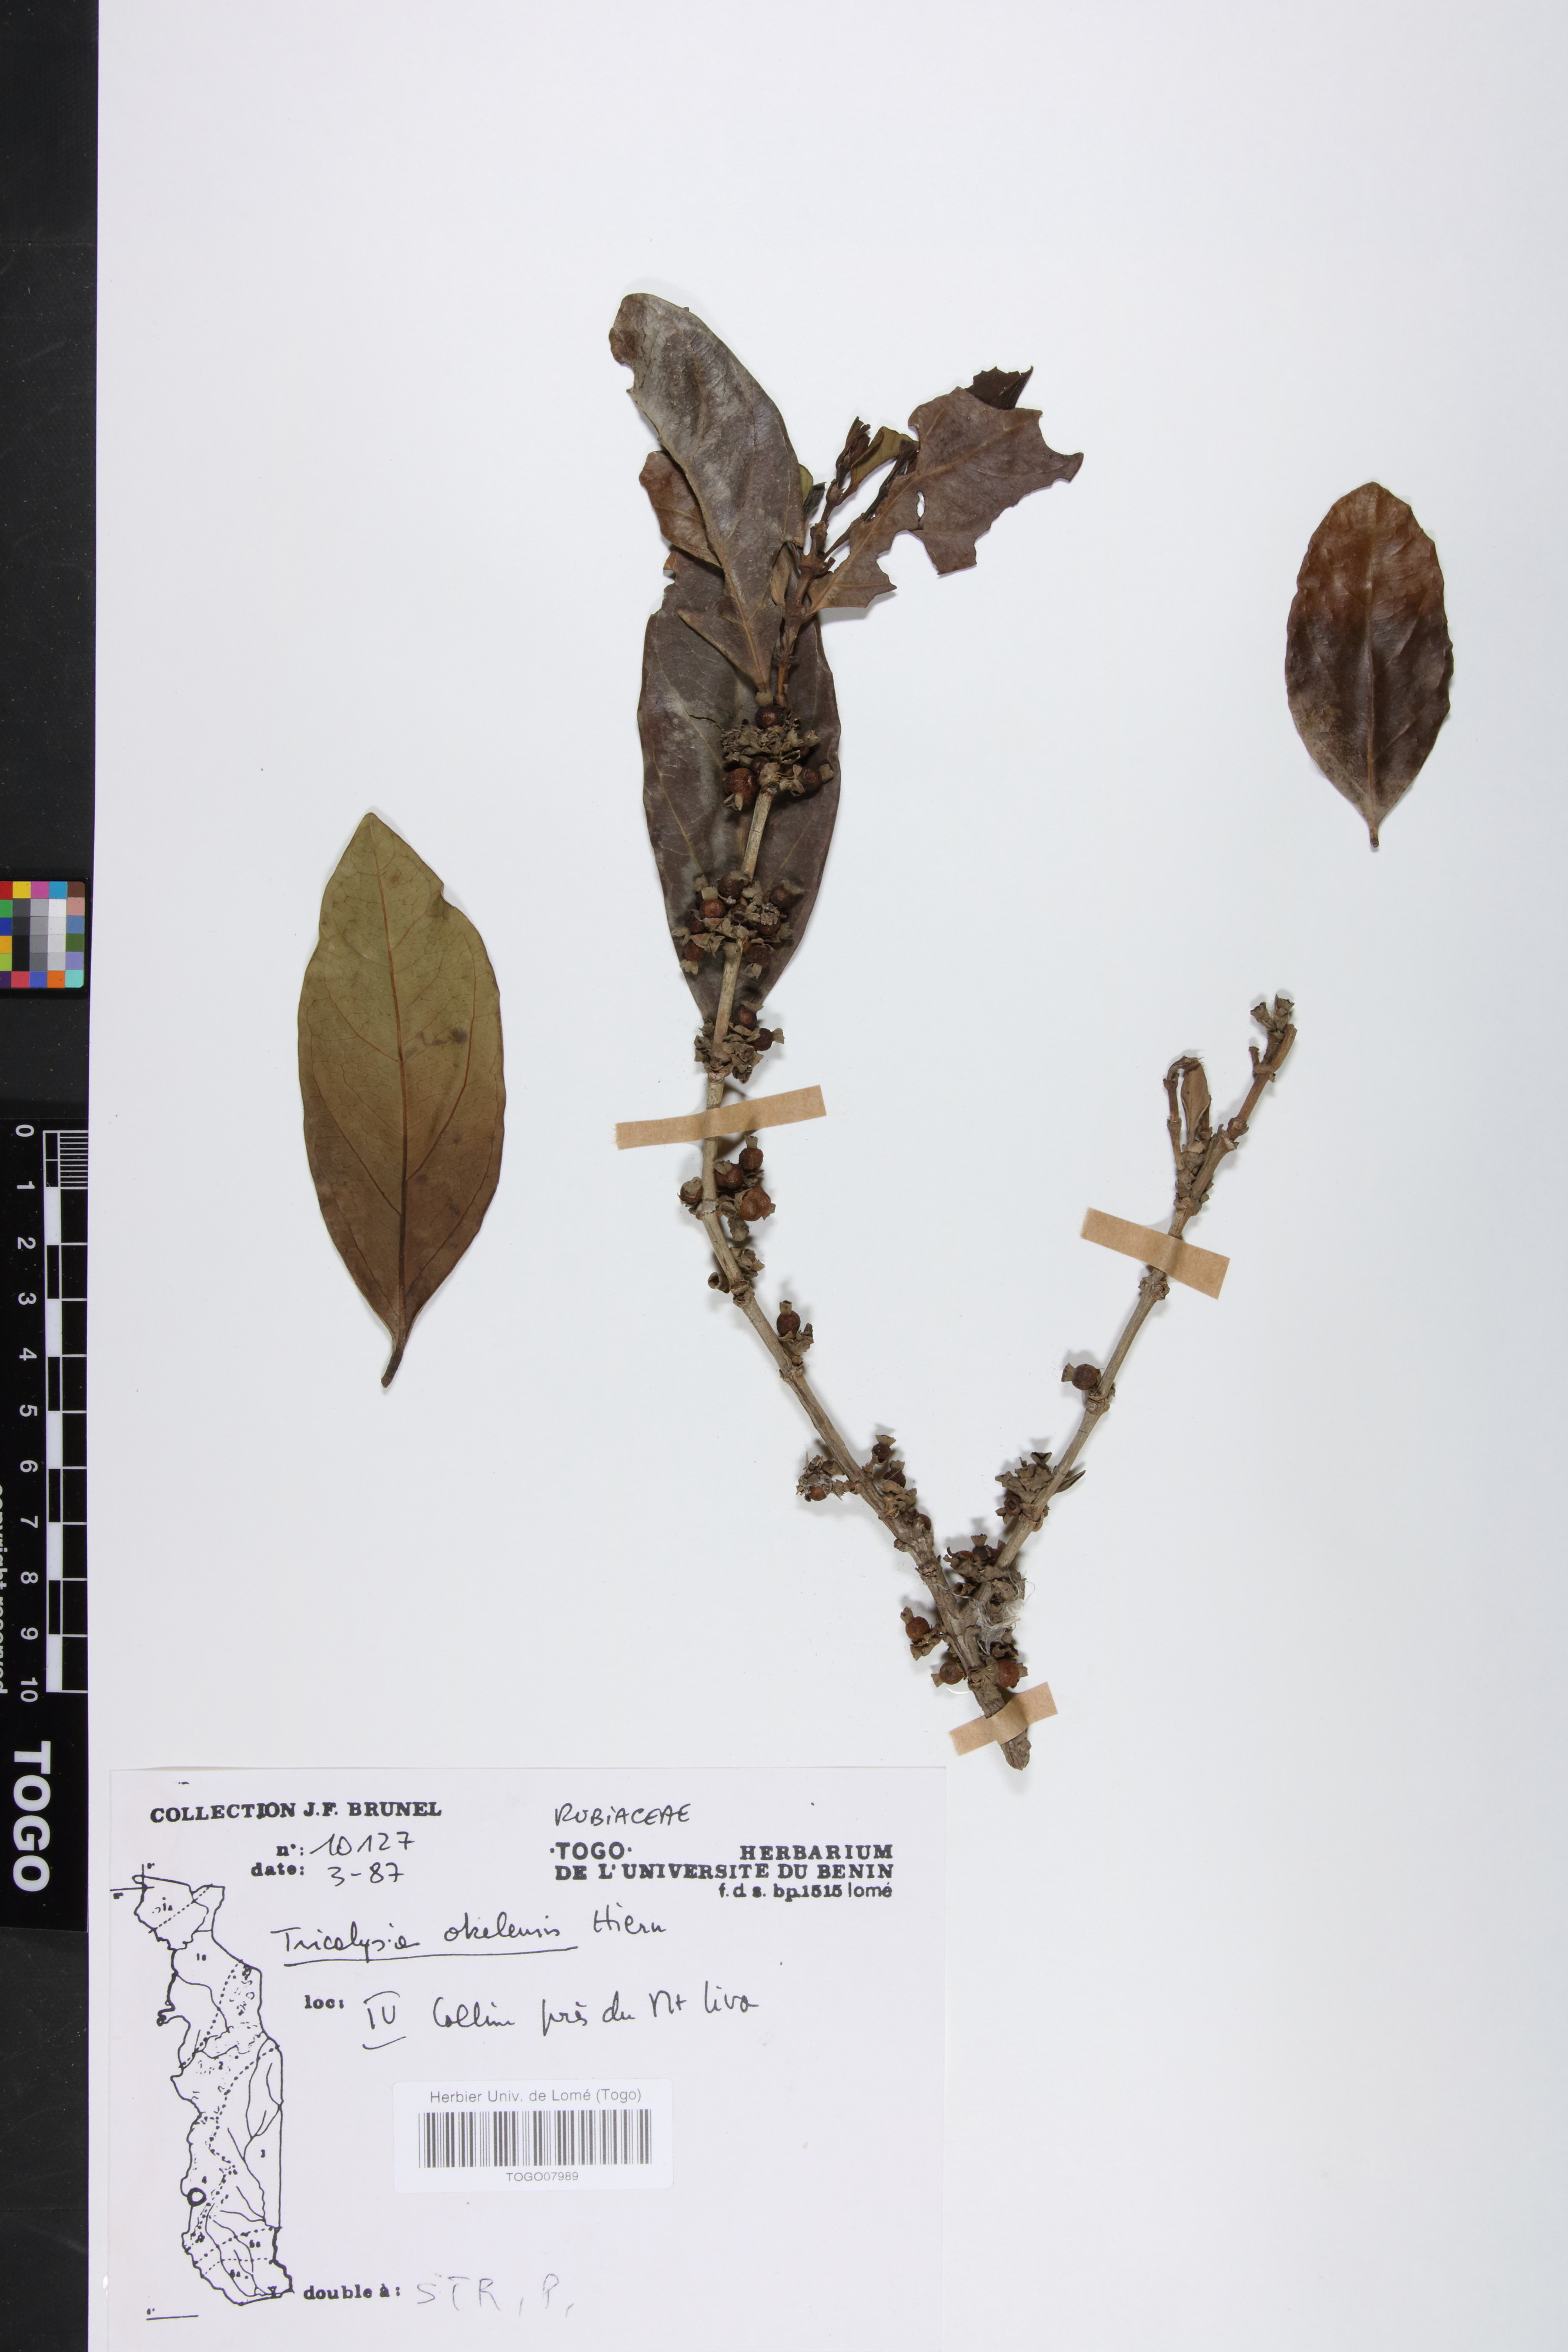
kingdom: Plantae
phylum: Tracheophyta
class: Magnoliopsida
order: Gentianales
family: Rubiaceae
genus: Tricalysia
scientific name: Tricalysia okelensis
